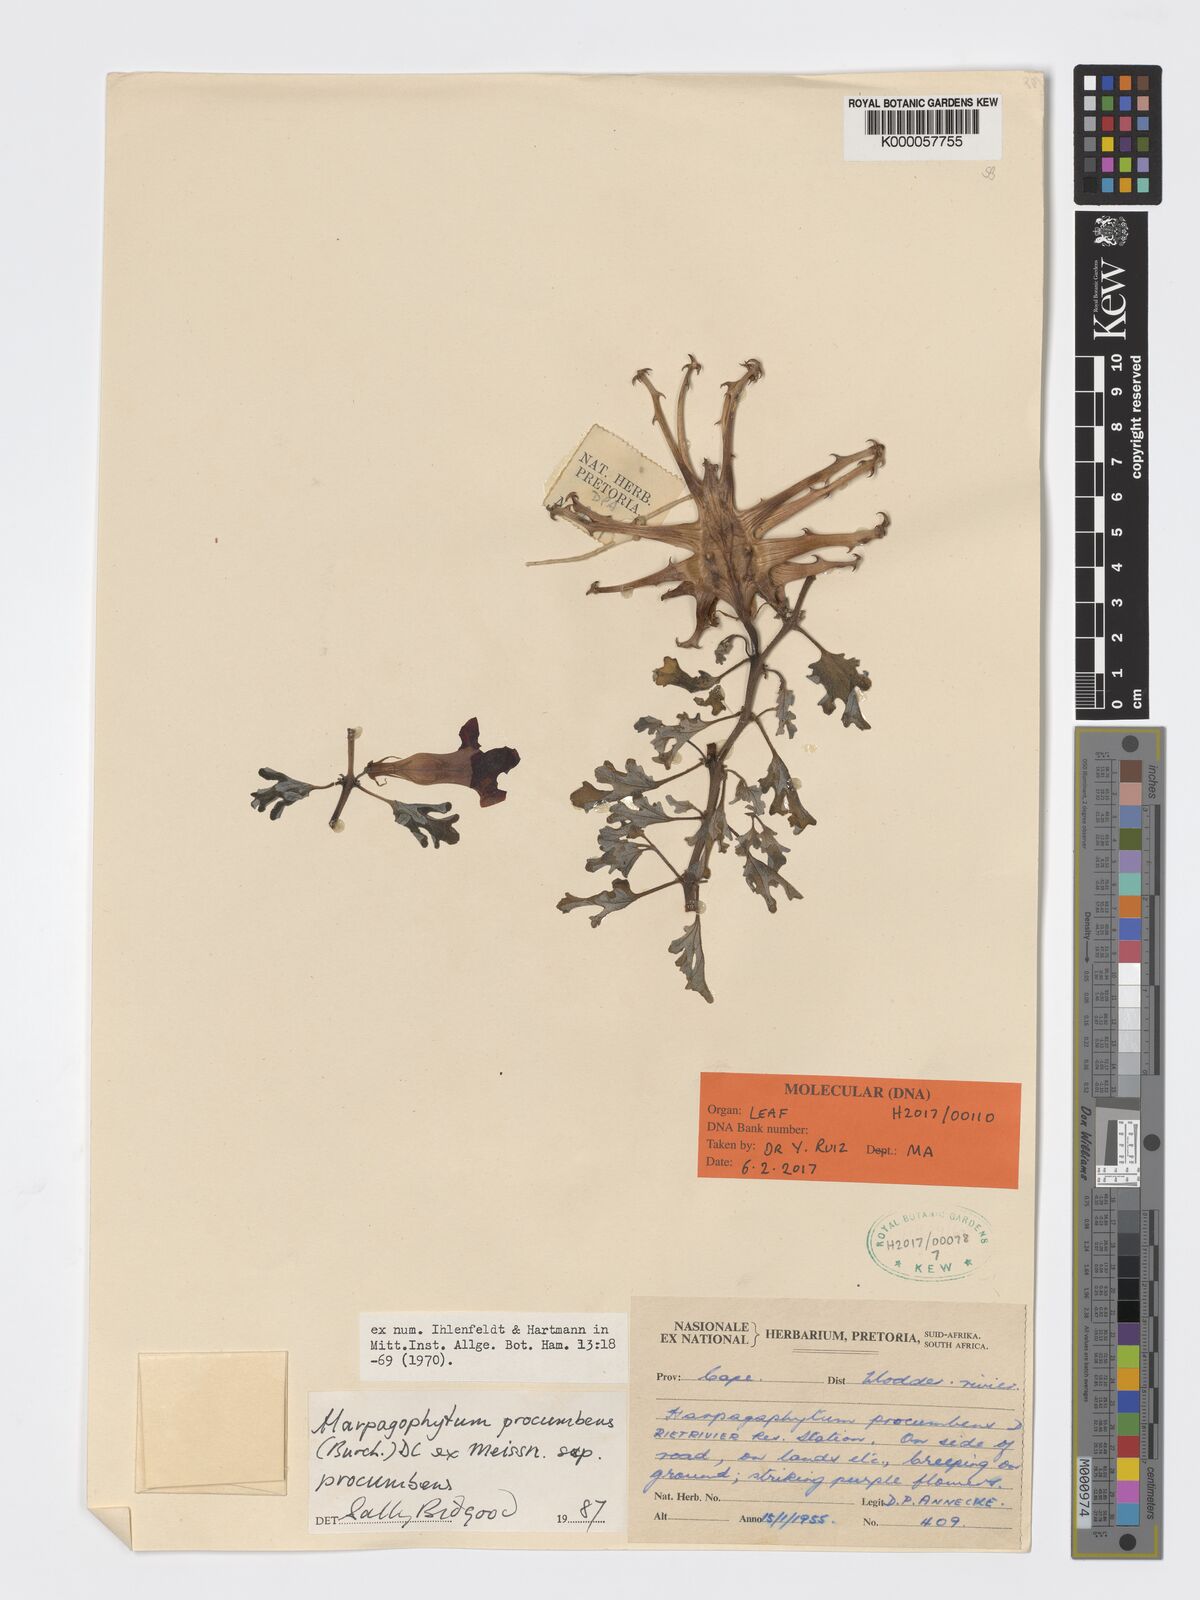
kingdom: Plantae
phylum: Tracheophyta
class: Magnoliopsida
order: Lamiales
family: Pedaliaceae
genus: Harpagophytum
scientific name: Harpagophytum procumbens
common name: Grappleplant
